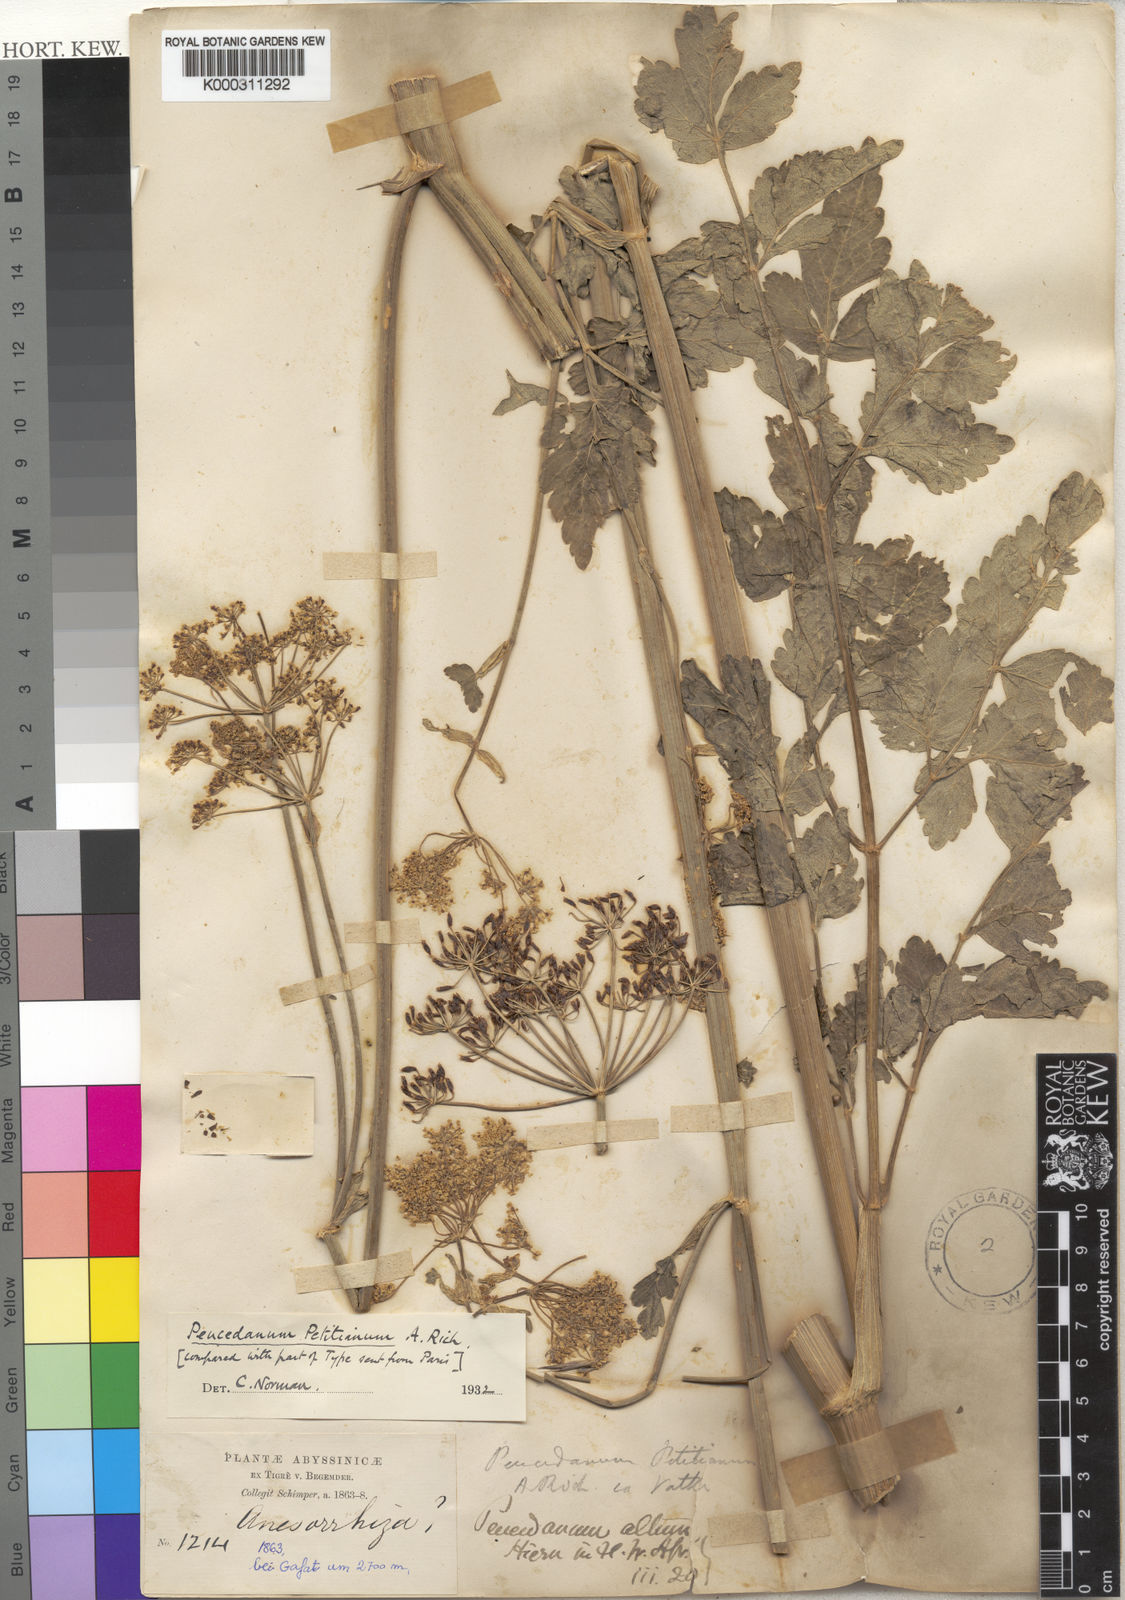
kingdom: Plantae
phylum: Tracheophyta
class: Magnoliopsida
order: Apiales
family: Apiaceae
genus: Afroligusticum
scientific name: Afroligusticum petitianum
